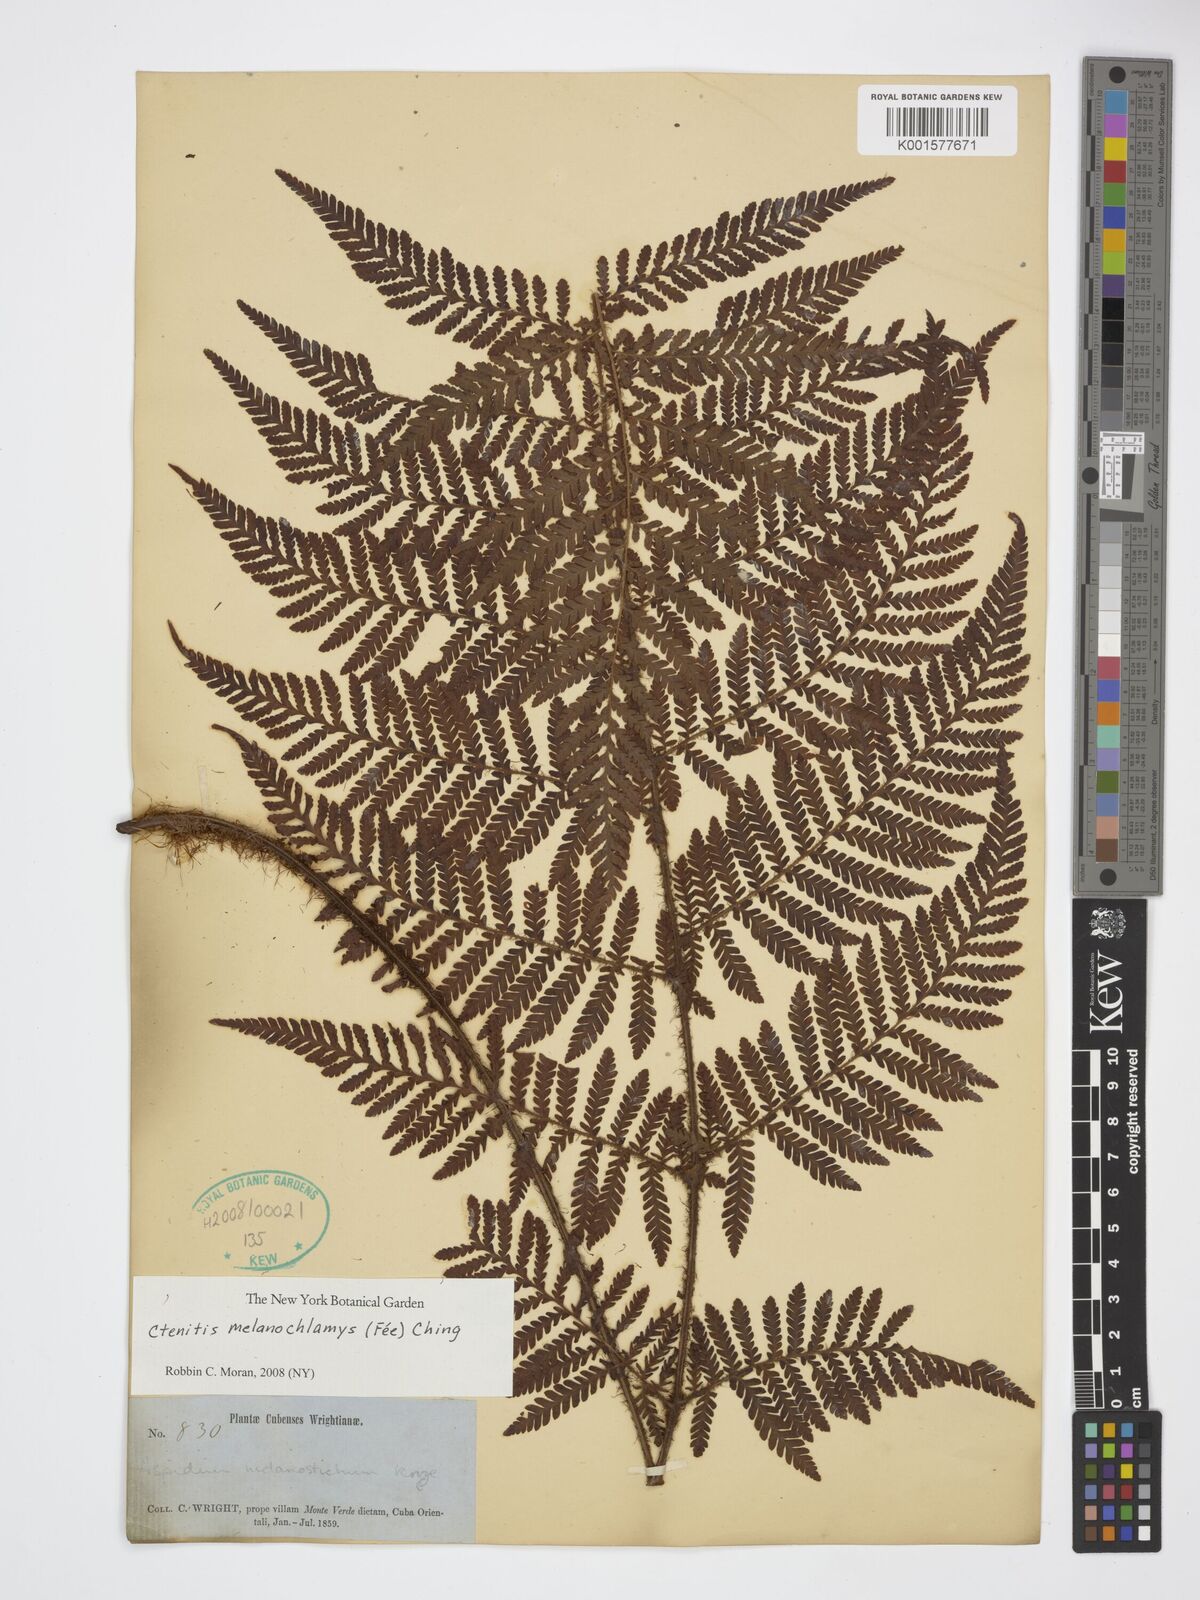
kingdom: Plantae
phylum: Tracheophyta
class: Polypodiopsida
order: Polypodiales
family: Dryopteridaceae
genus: Ctenitis
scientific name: Ctenitis melanochlamys
